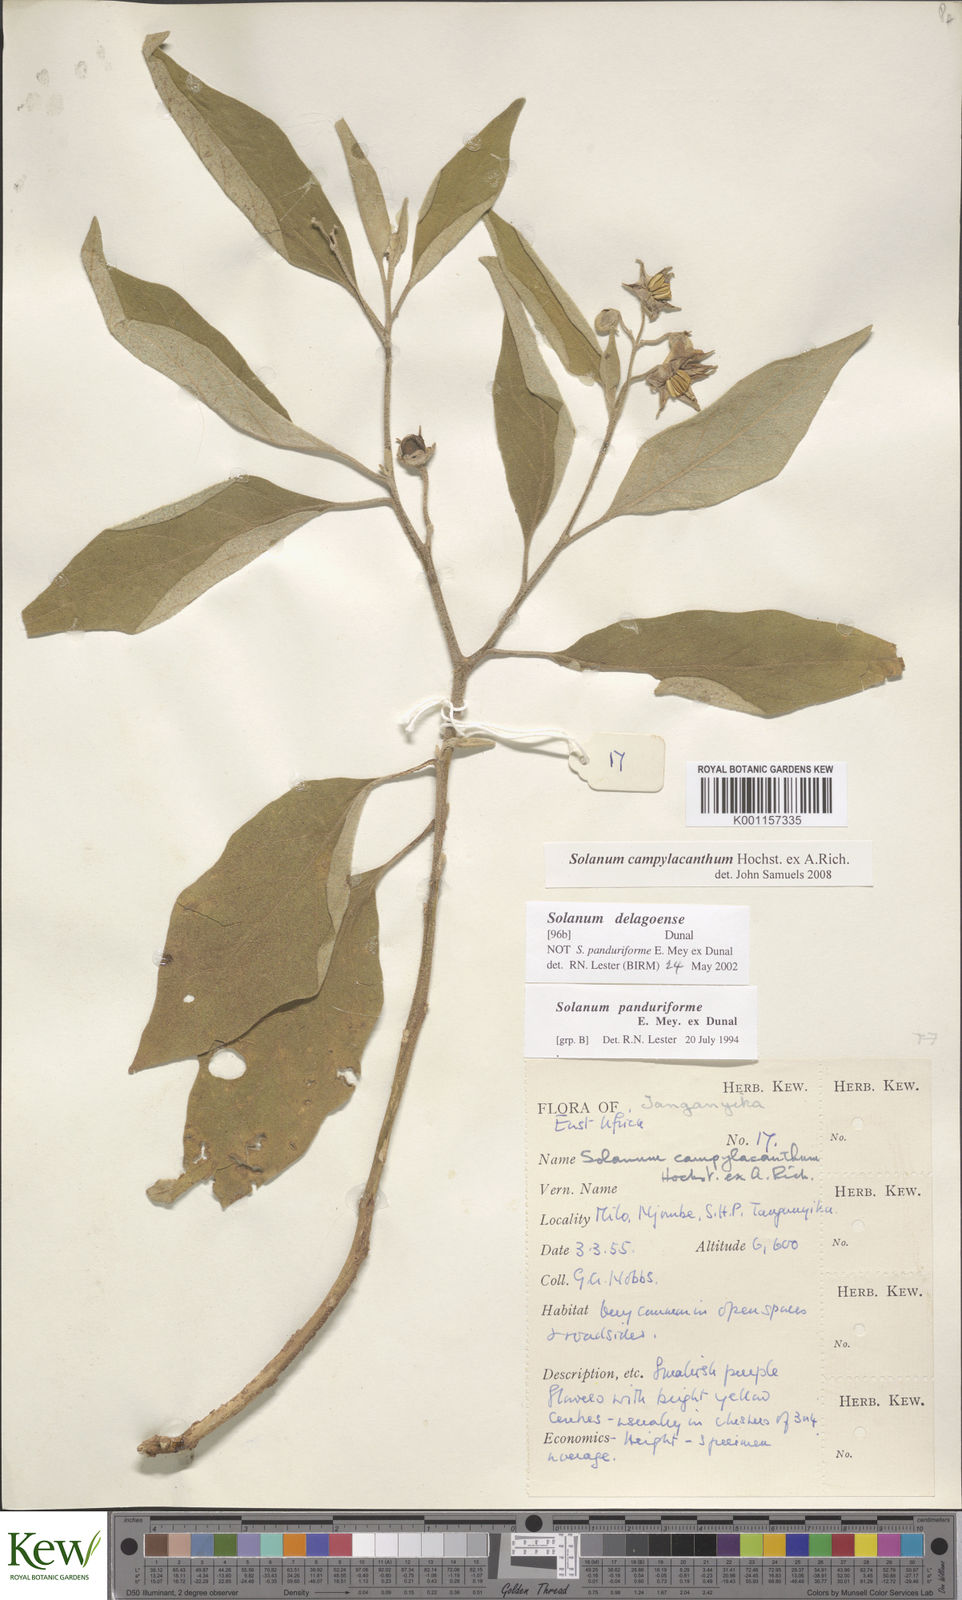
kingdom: Plantae
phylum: Tracheophyta
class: Magnoliopsida
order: Solanales
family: Solanaceae
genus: Solanum
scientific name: Solanum campylacanthum
